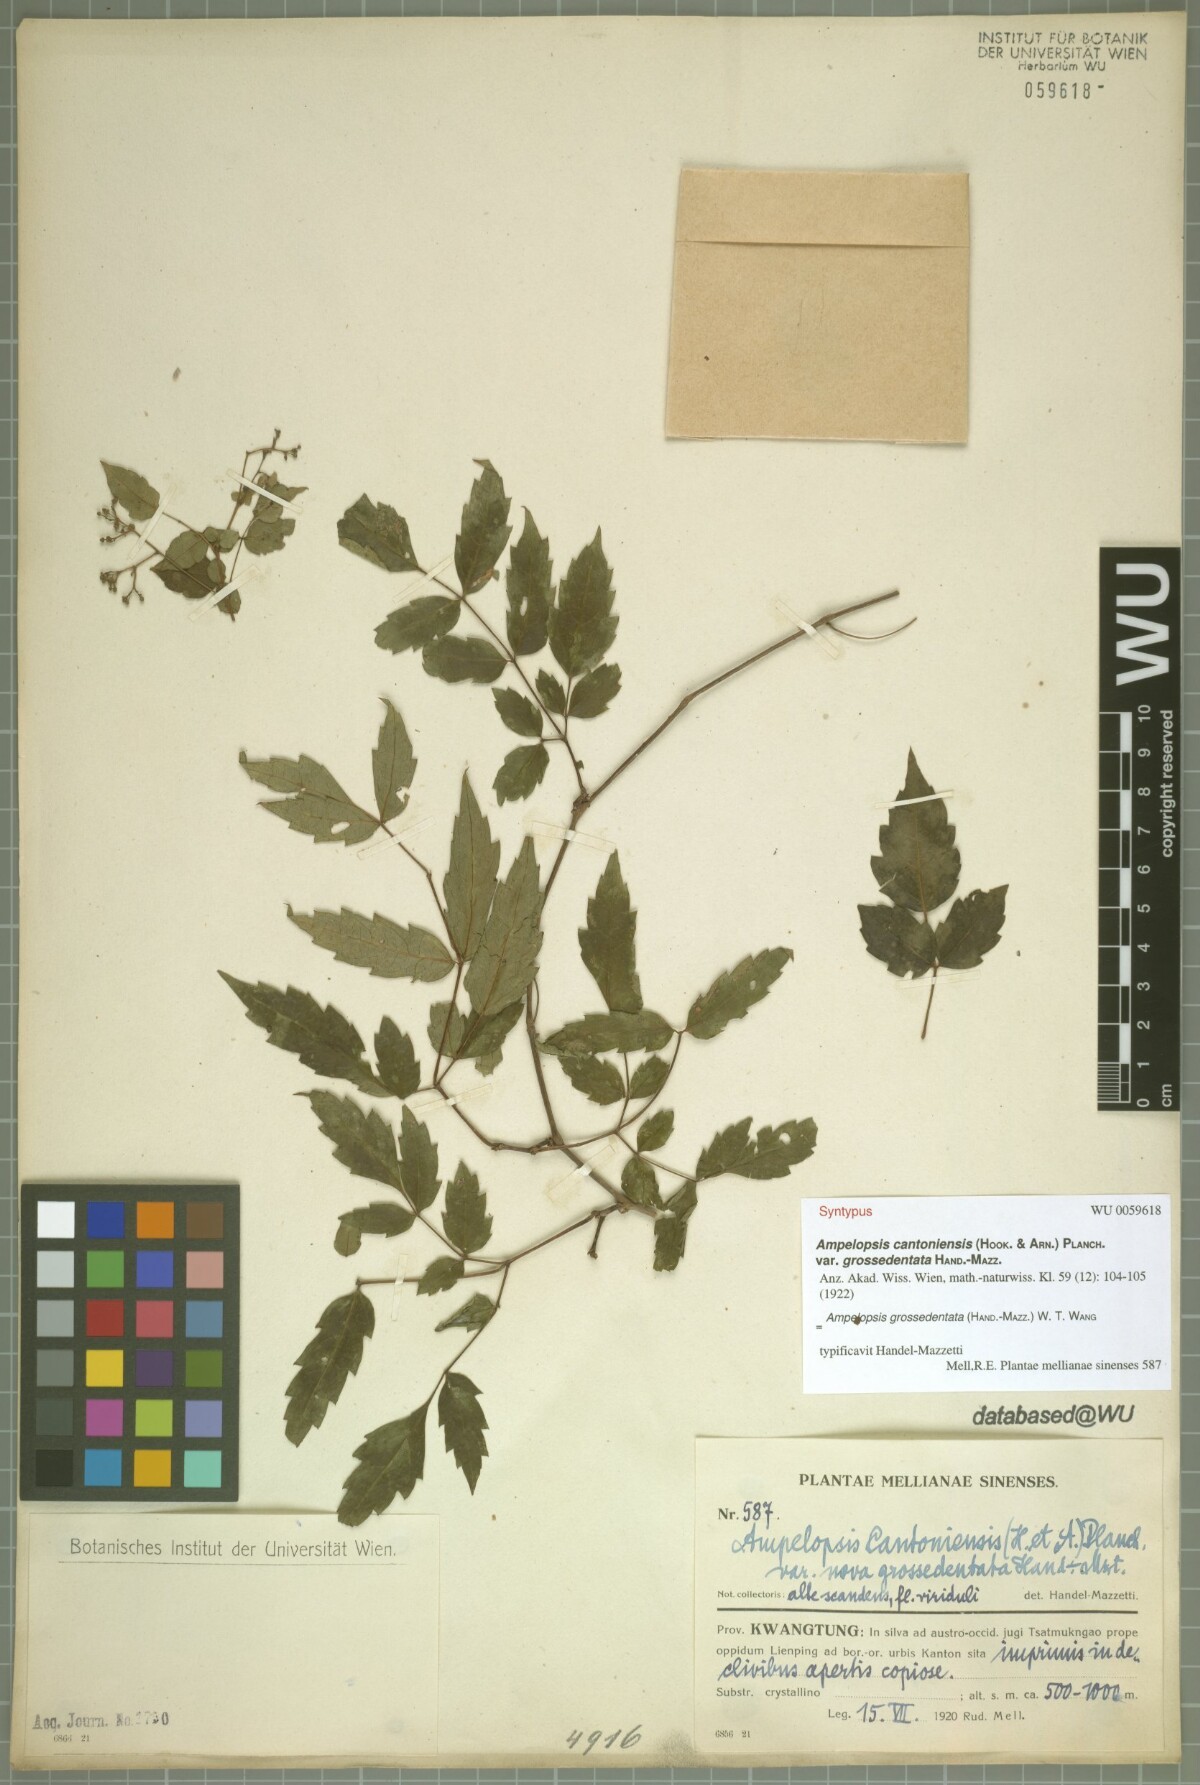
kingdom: Plantae
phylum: Tracheophyta
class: Magnoliopsida
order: Vitales
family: Vitaceae
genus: Nekemias
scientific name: Nekemias grossedentata
